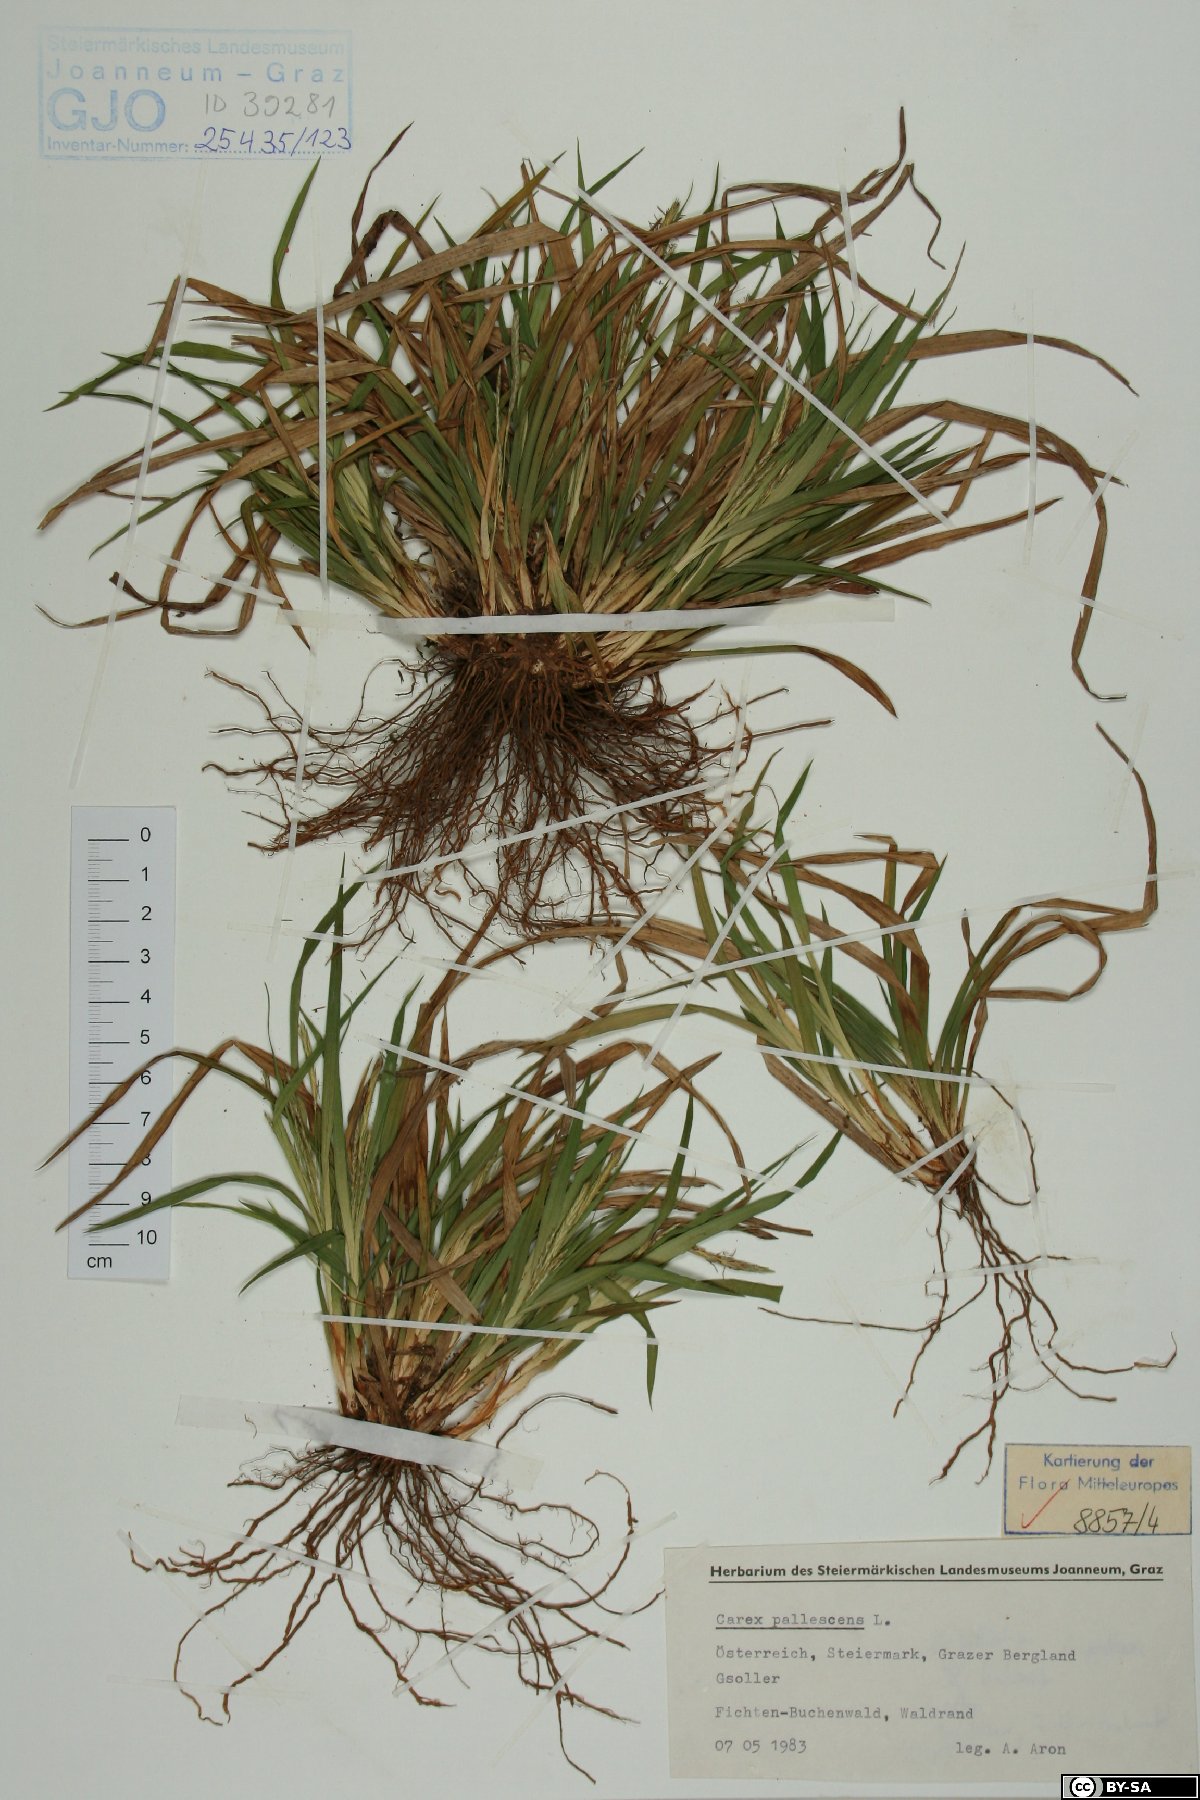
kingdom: Plantae
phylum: Tracheophyta
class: Liliopsida
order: Poales
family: Cyperaceae
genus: Carex
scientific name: Carex pallescens
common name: Pale sedge
